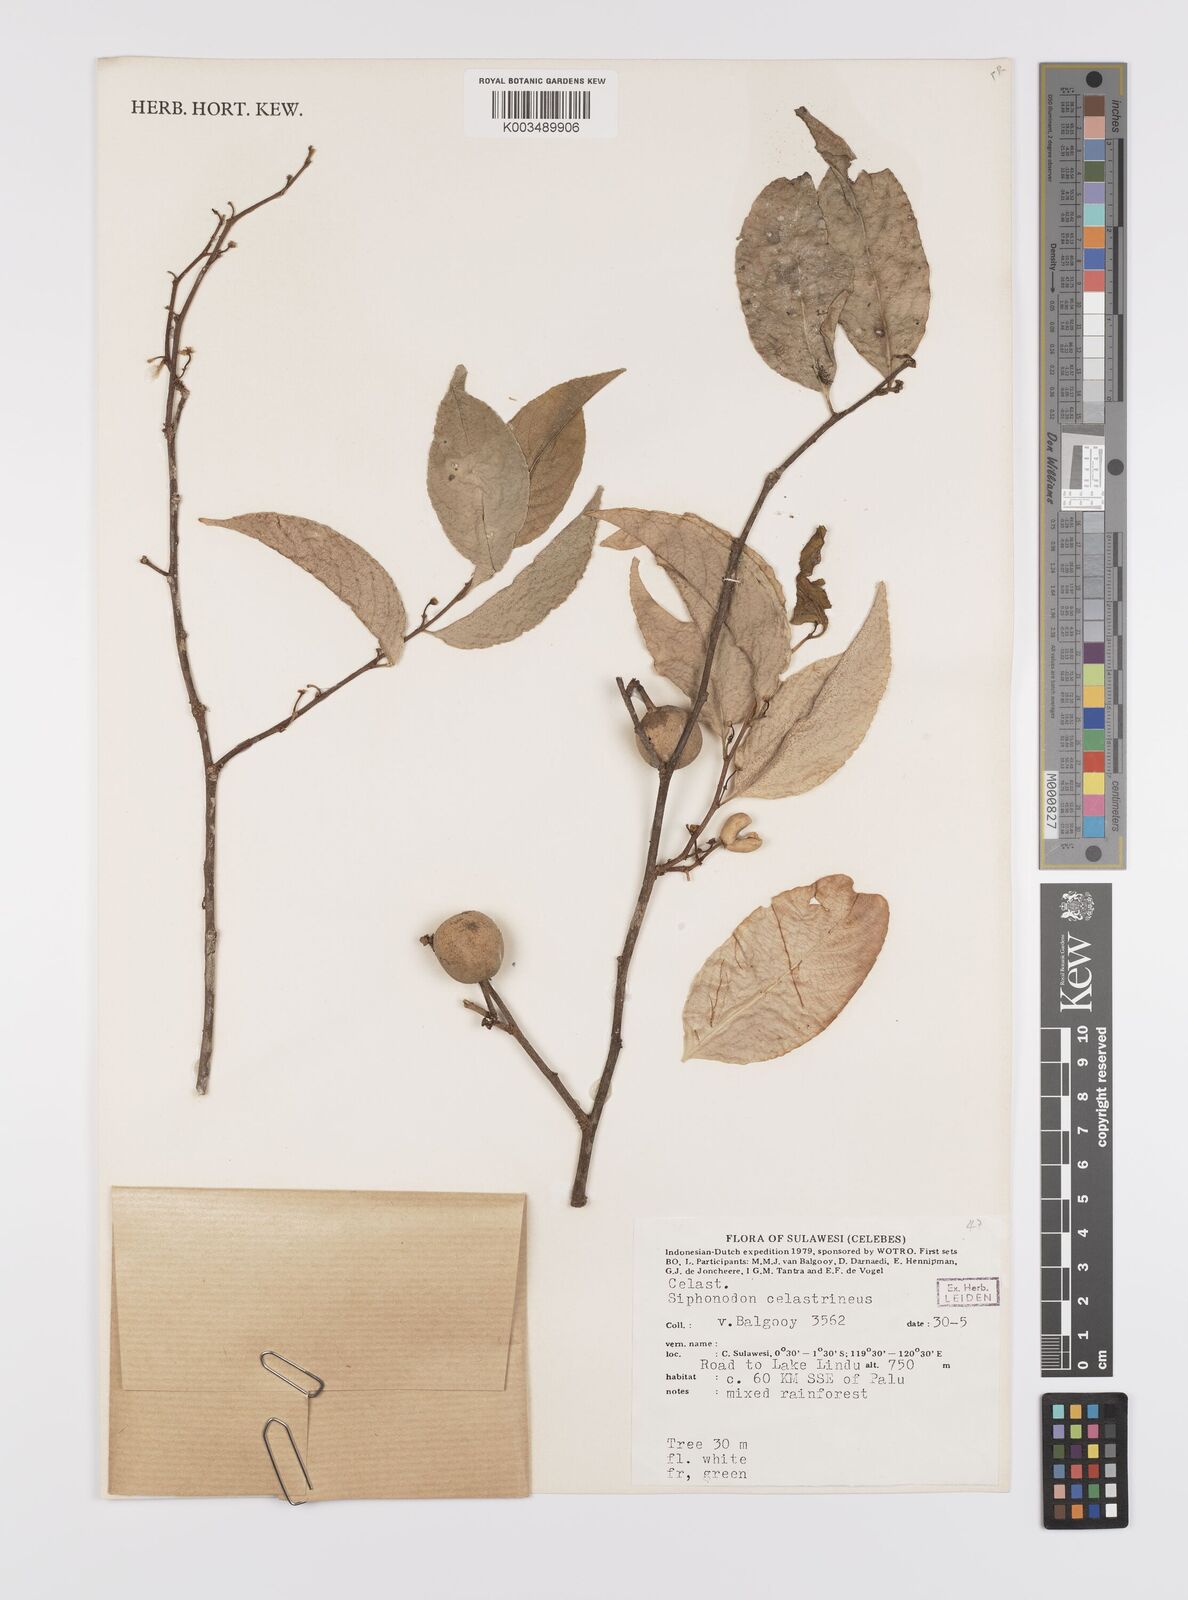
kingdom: Plantae
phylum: Tracheophyta
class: Magnoliopsida
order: Celastrales
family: Celastraceae
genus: Siphonodon
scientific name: Siphonodon celastrineus
